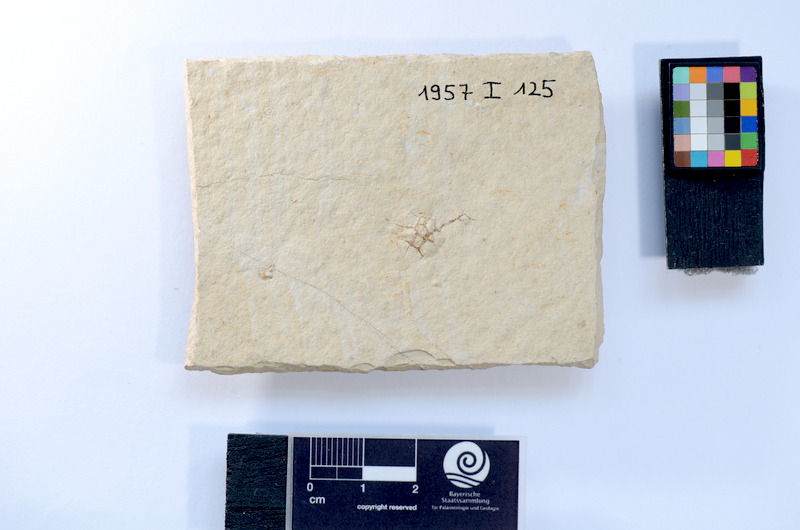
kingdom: Animalia
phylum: Chordata
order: Salmoniformes
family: Orthogonikleithridae
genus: Leptolepides
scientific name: Leptolepides sprattiformis
